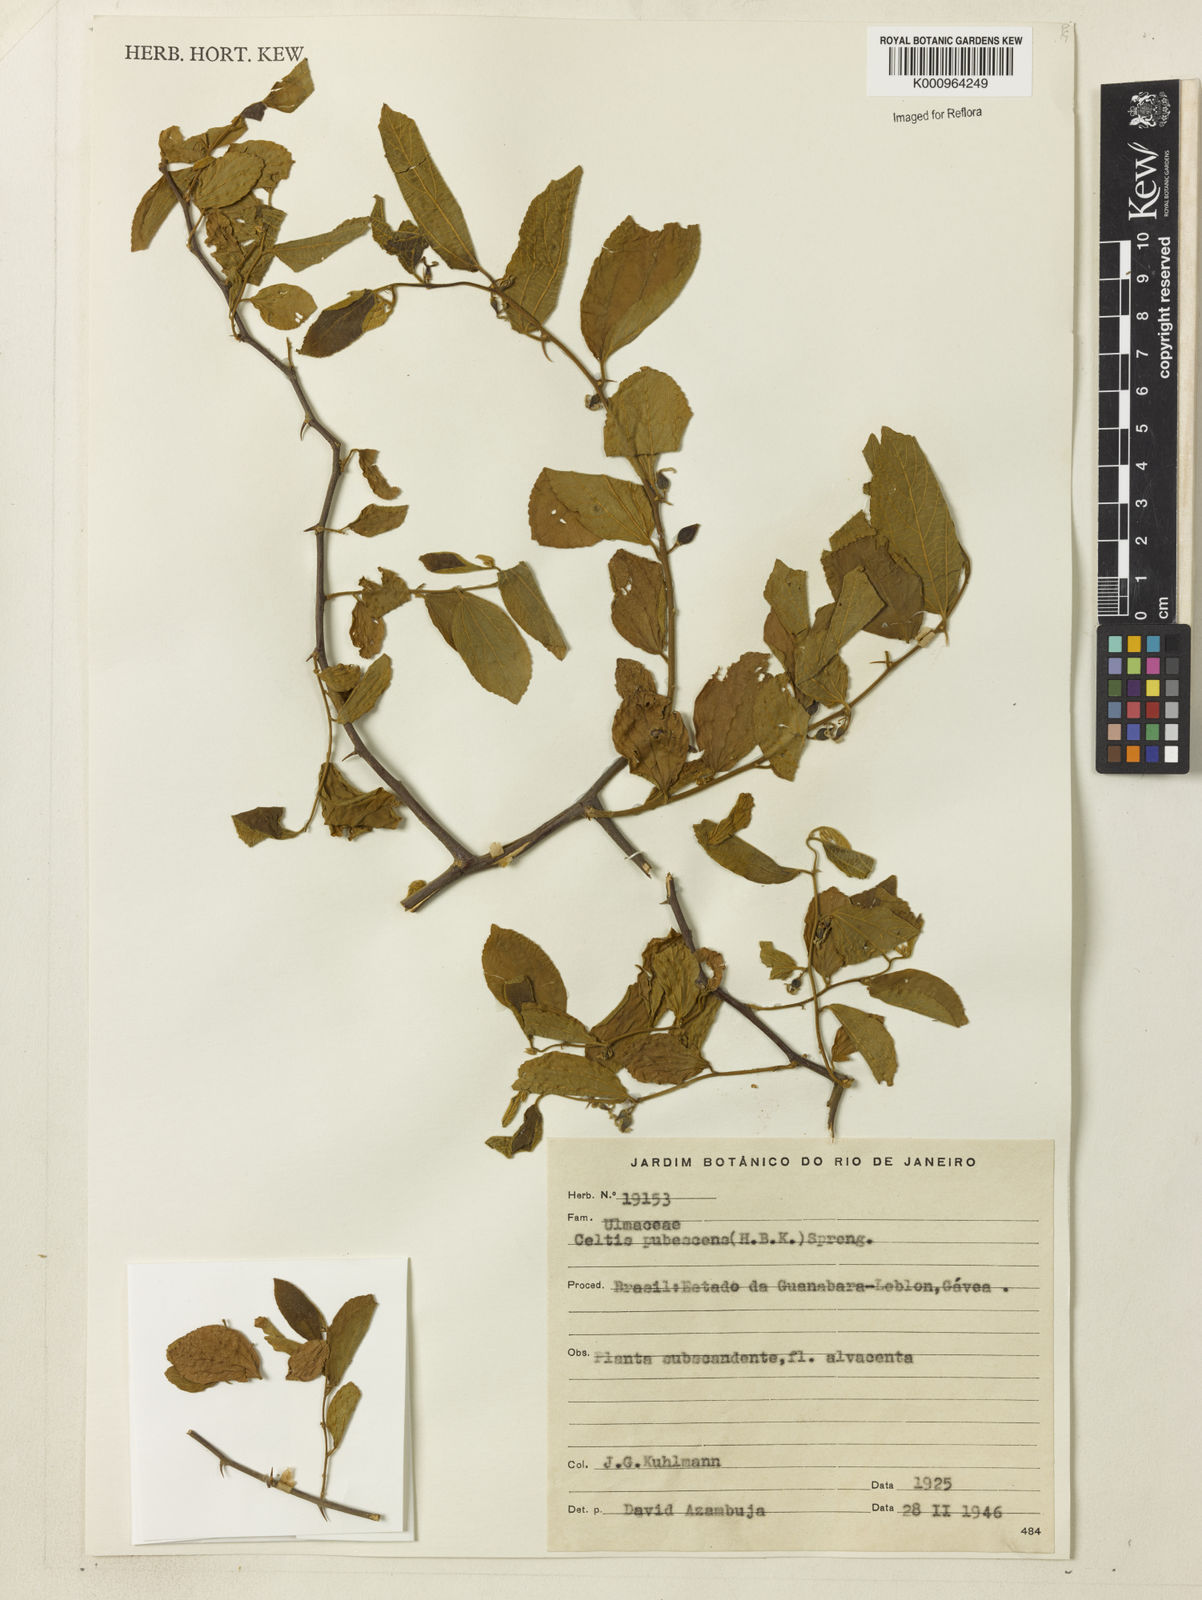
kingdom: Plantae
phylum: Tracheophyta
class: Magnoliopsida
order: Rosales
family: Cannabaceae
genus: Celtis
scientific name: Celtis iguanaea
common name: Iguana hackberry
